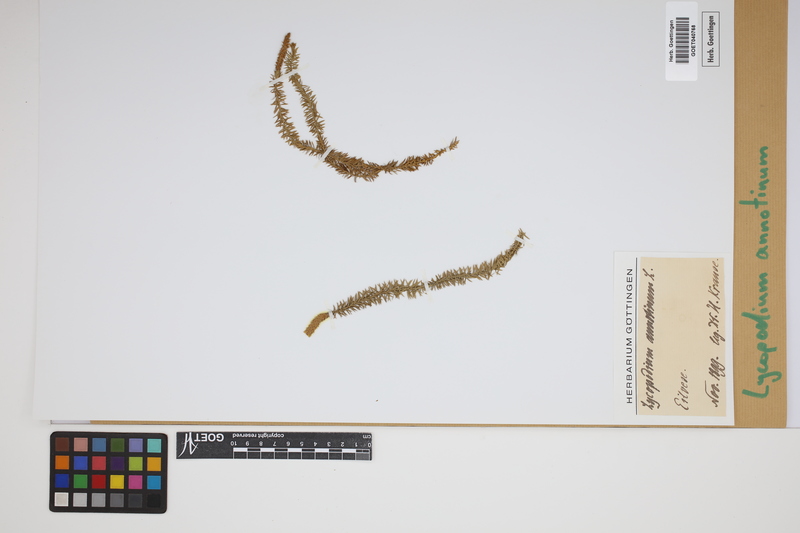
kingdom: Plantae
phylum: Tracheophyta
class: Lycopodiopsida
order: Lycopodiales
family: Lycopodiaceae
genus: Spinulum
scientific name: Spinulum annotinum
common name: Interrupted club-moss
